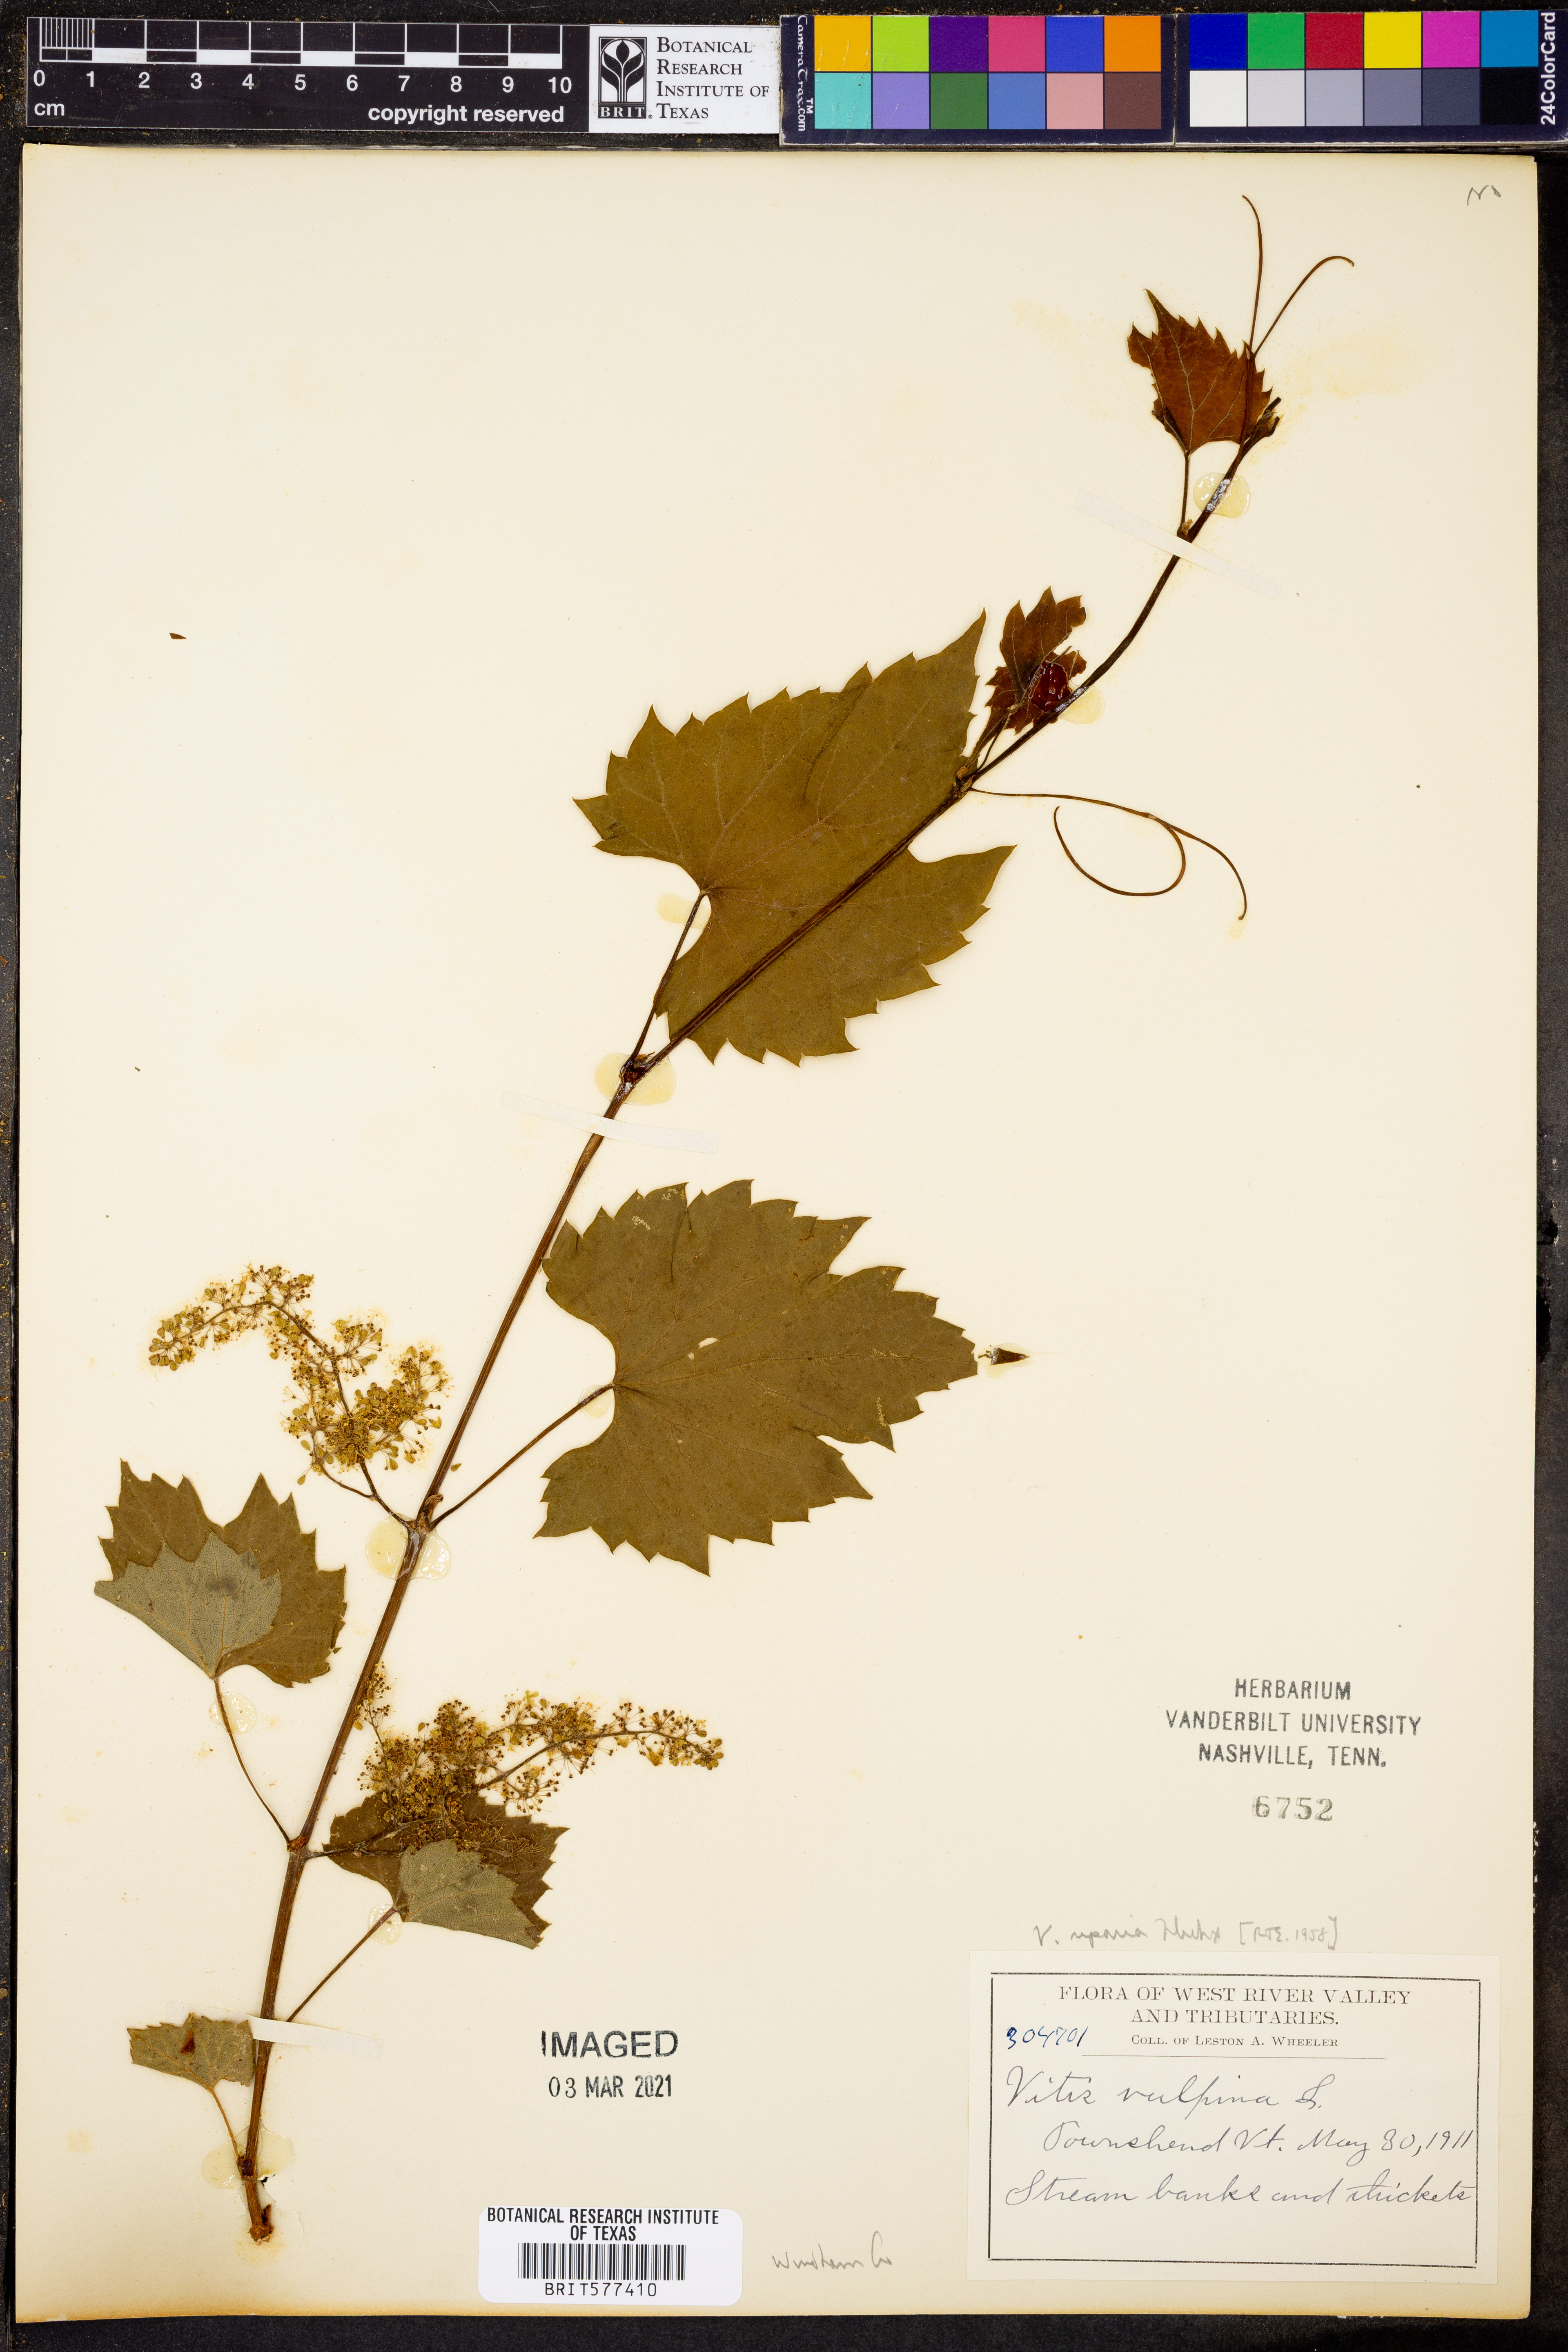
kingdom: Plantae
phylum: Tracheophyta
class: Magnoliopsida
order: Vitales
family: Vitaceae
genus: Vitis
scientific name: Vitis vulpina
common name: Frost grape
